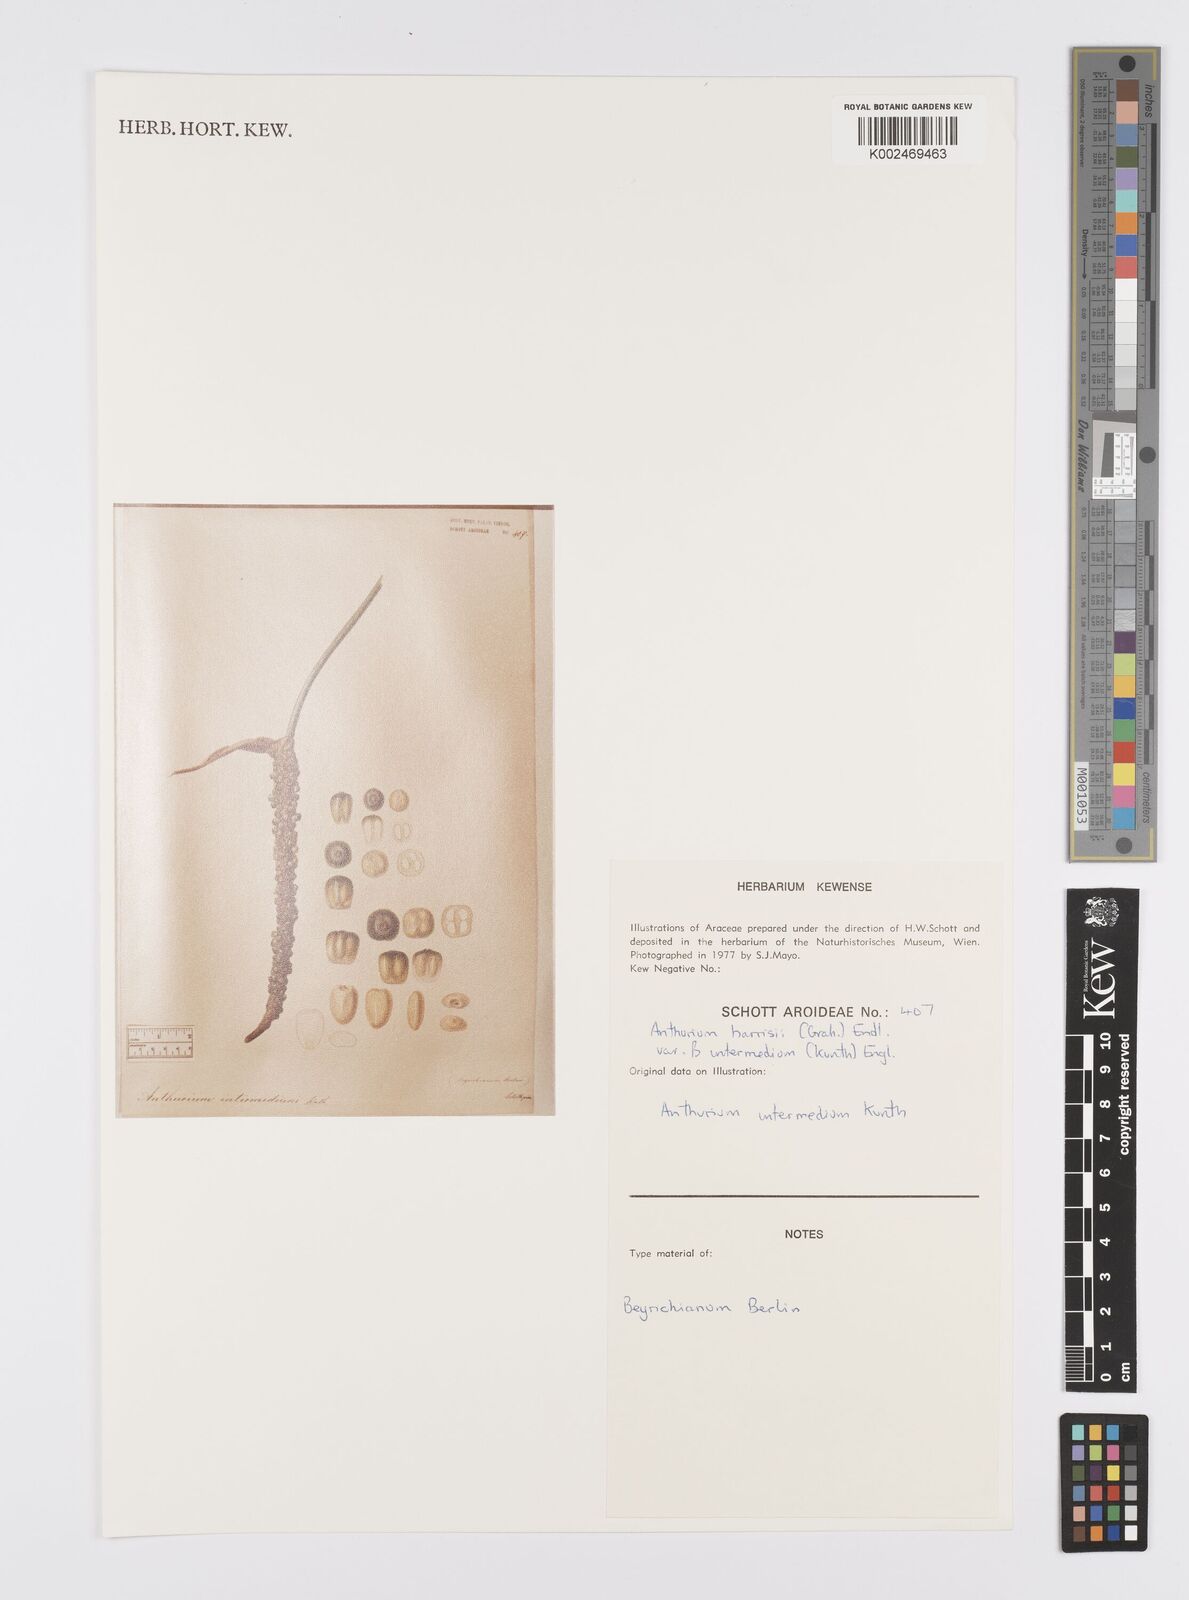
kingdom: Plantae
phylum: Tracheophyta
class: Liliopsida
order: Alismatales
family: Araceae
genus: Anthurium
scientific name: Anthurium intermedium
